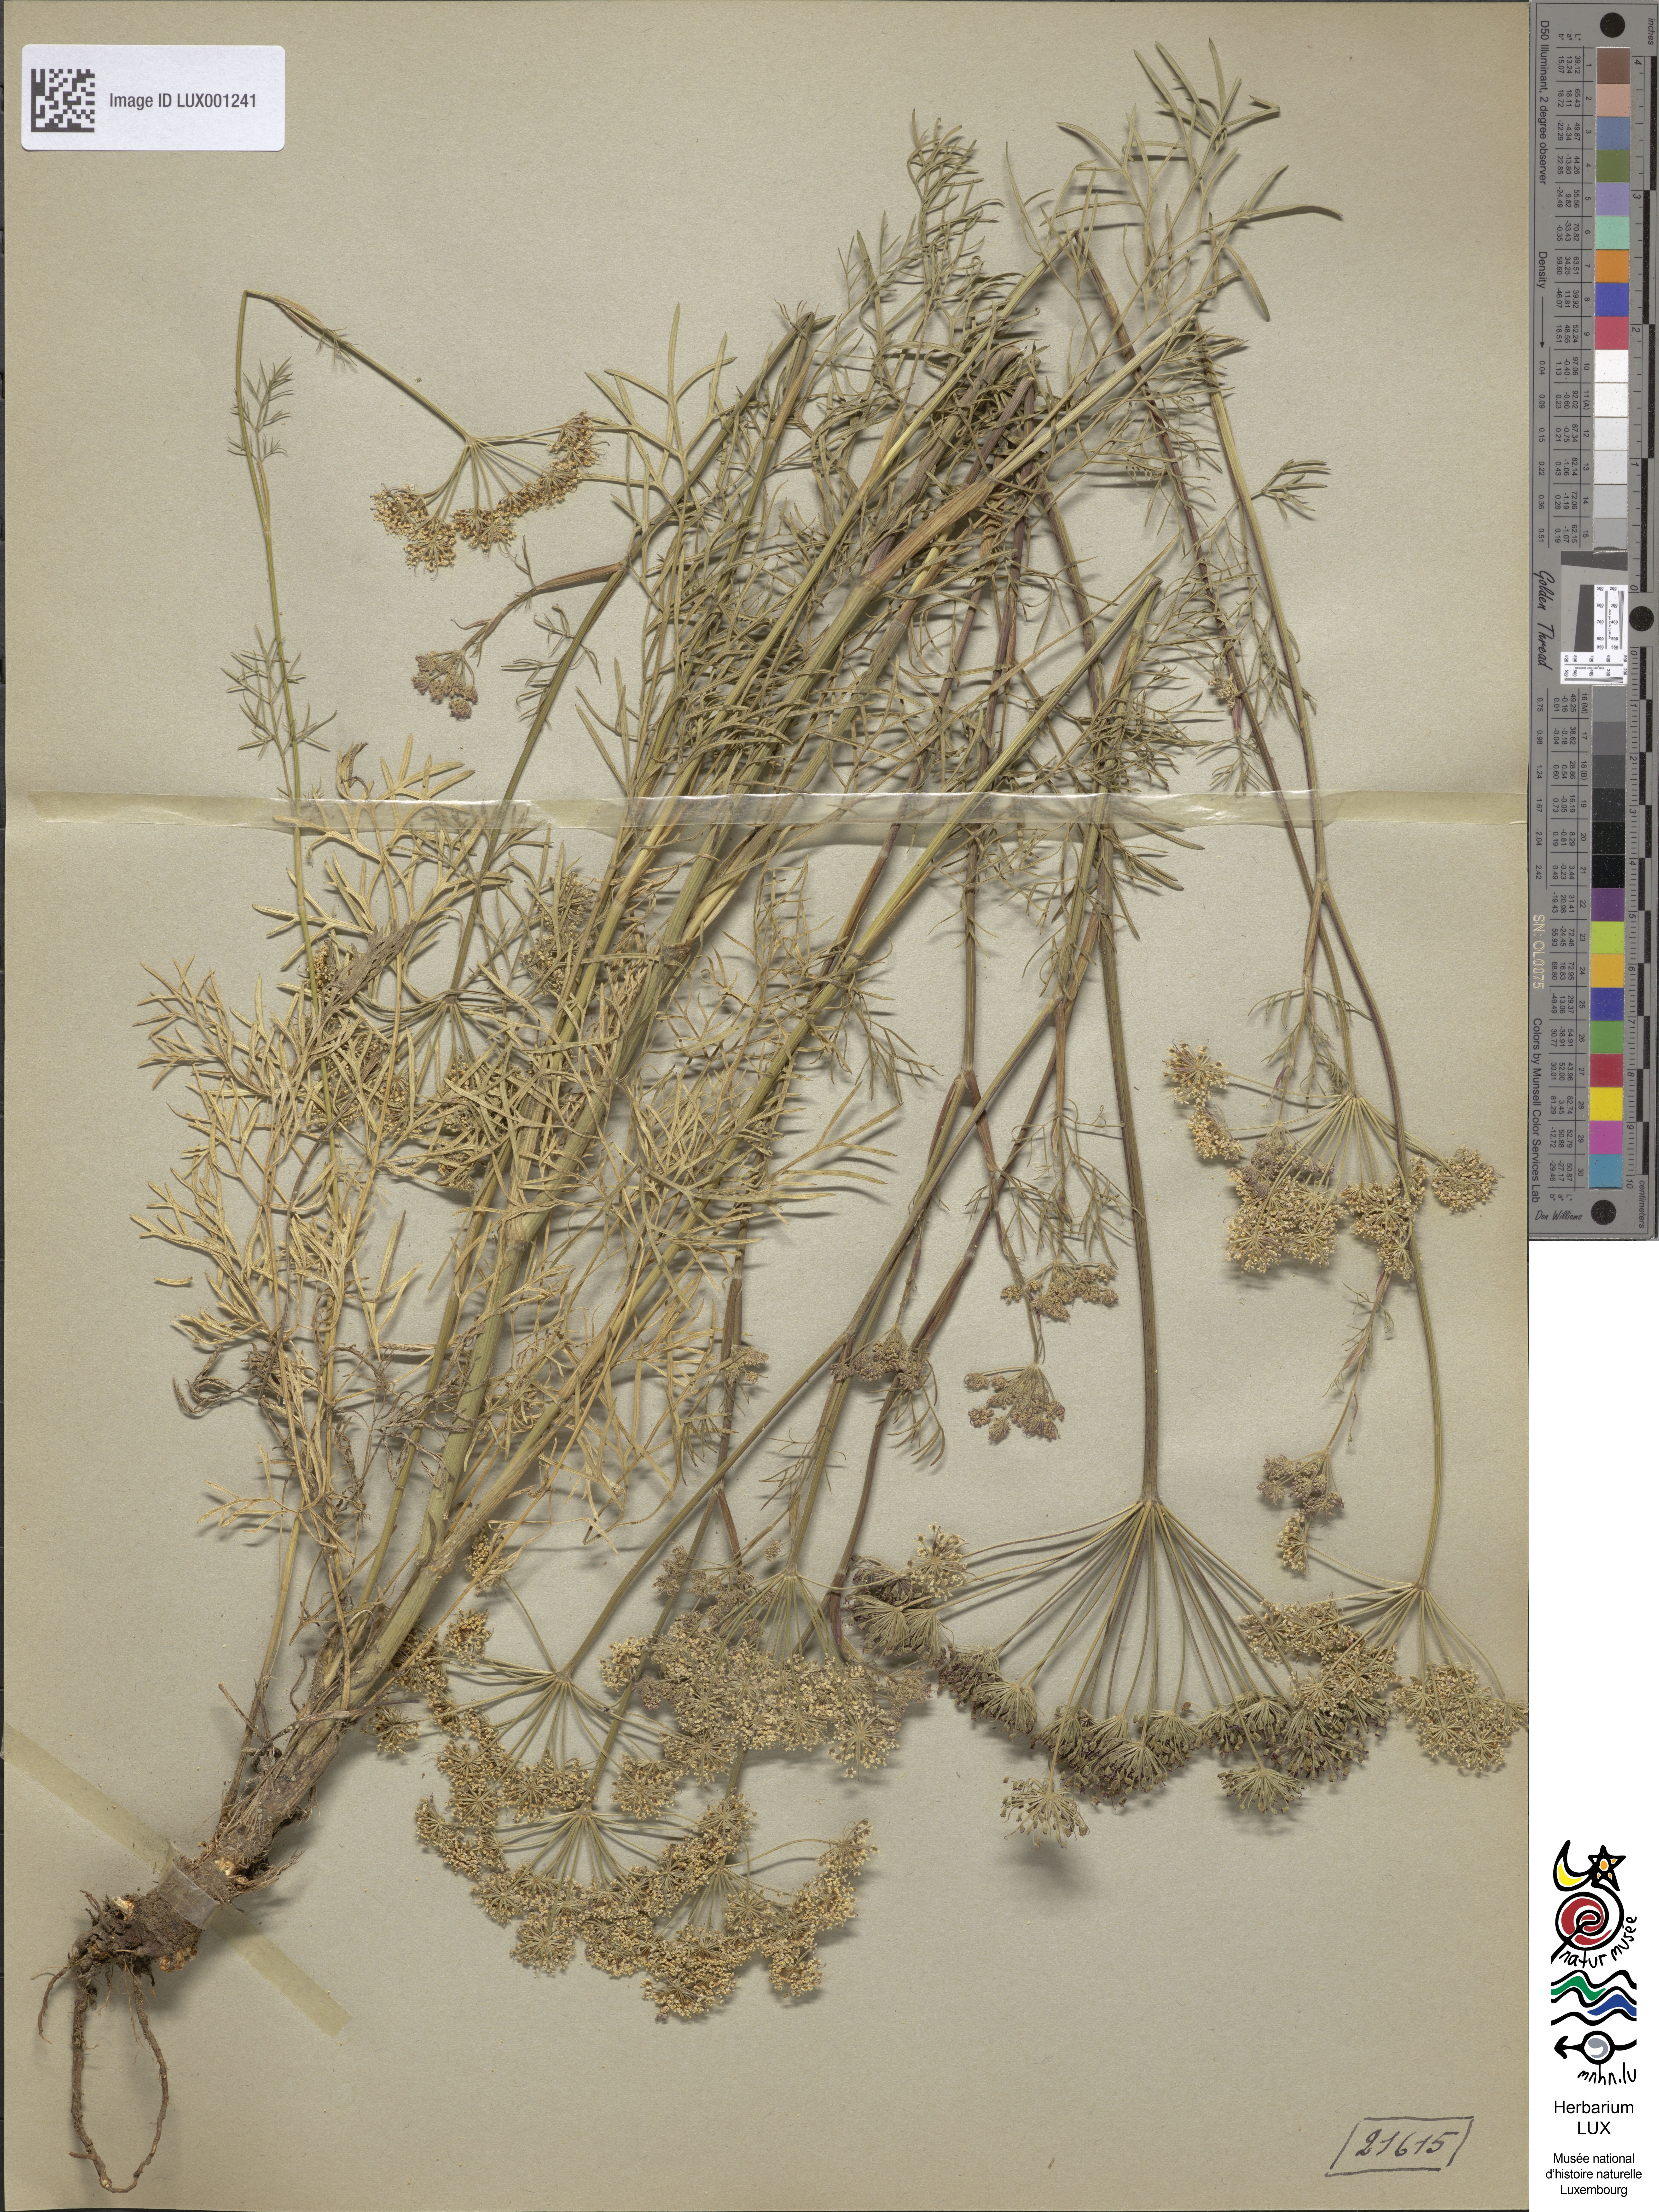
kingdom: Plantae
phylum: Tracheophyta
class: Magnoliopsida
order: Apiales
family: Apiaceae
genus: Seseli
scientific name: Seseli annuum
